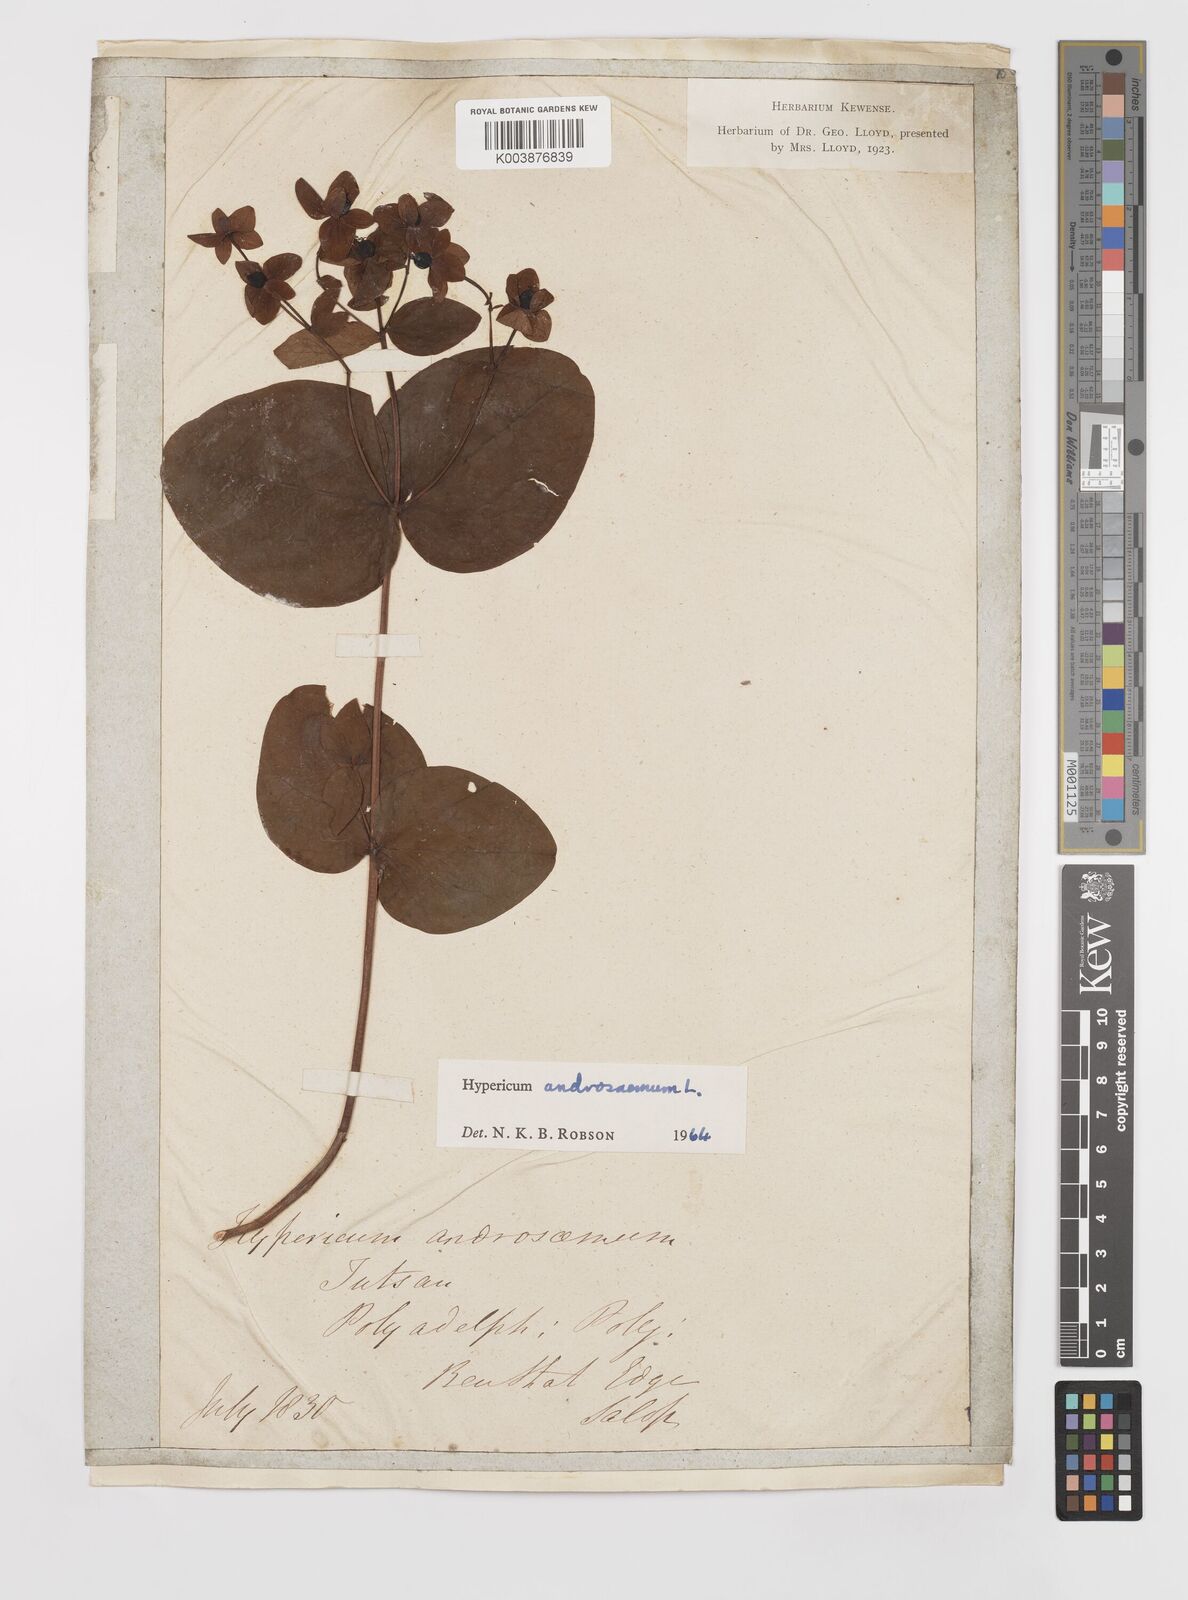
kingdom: Plantae
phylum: Tracheophyta
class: Magnoliopsida
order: Malpighiales
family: Hypericaceae
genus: Hypericum
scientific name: Hypericum androsaemum
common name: Sweet-amber
